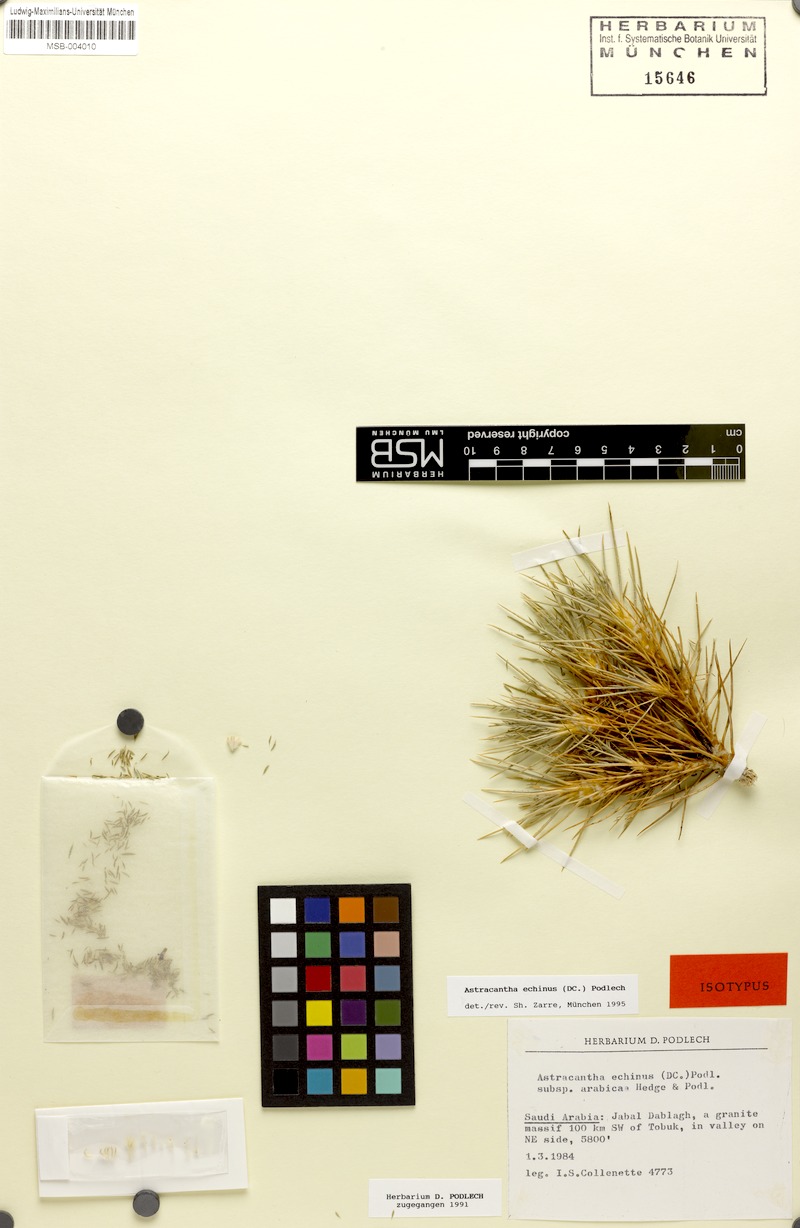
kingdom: Plantae
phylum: Tracheophyta
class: Magnoliopsida
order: Fabales
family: Fabaceae
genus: Astragalus
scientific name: Astragalus echinus
